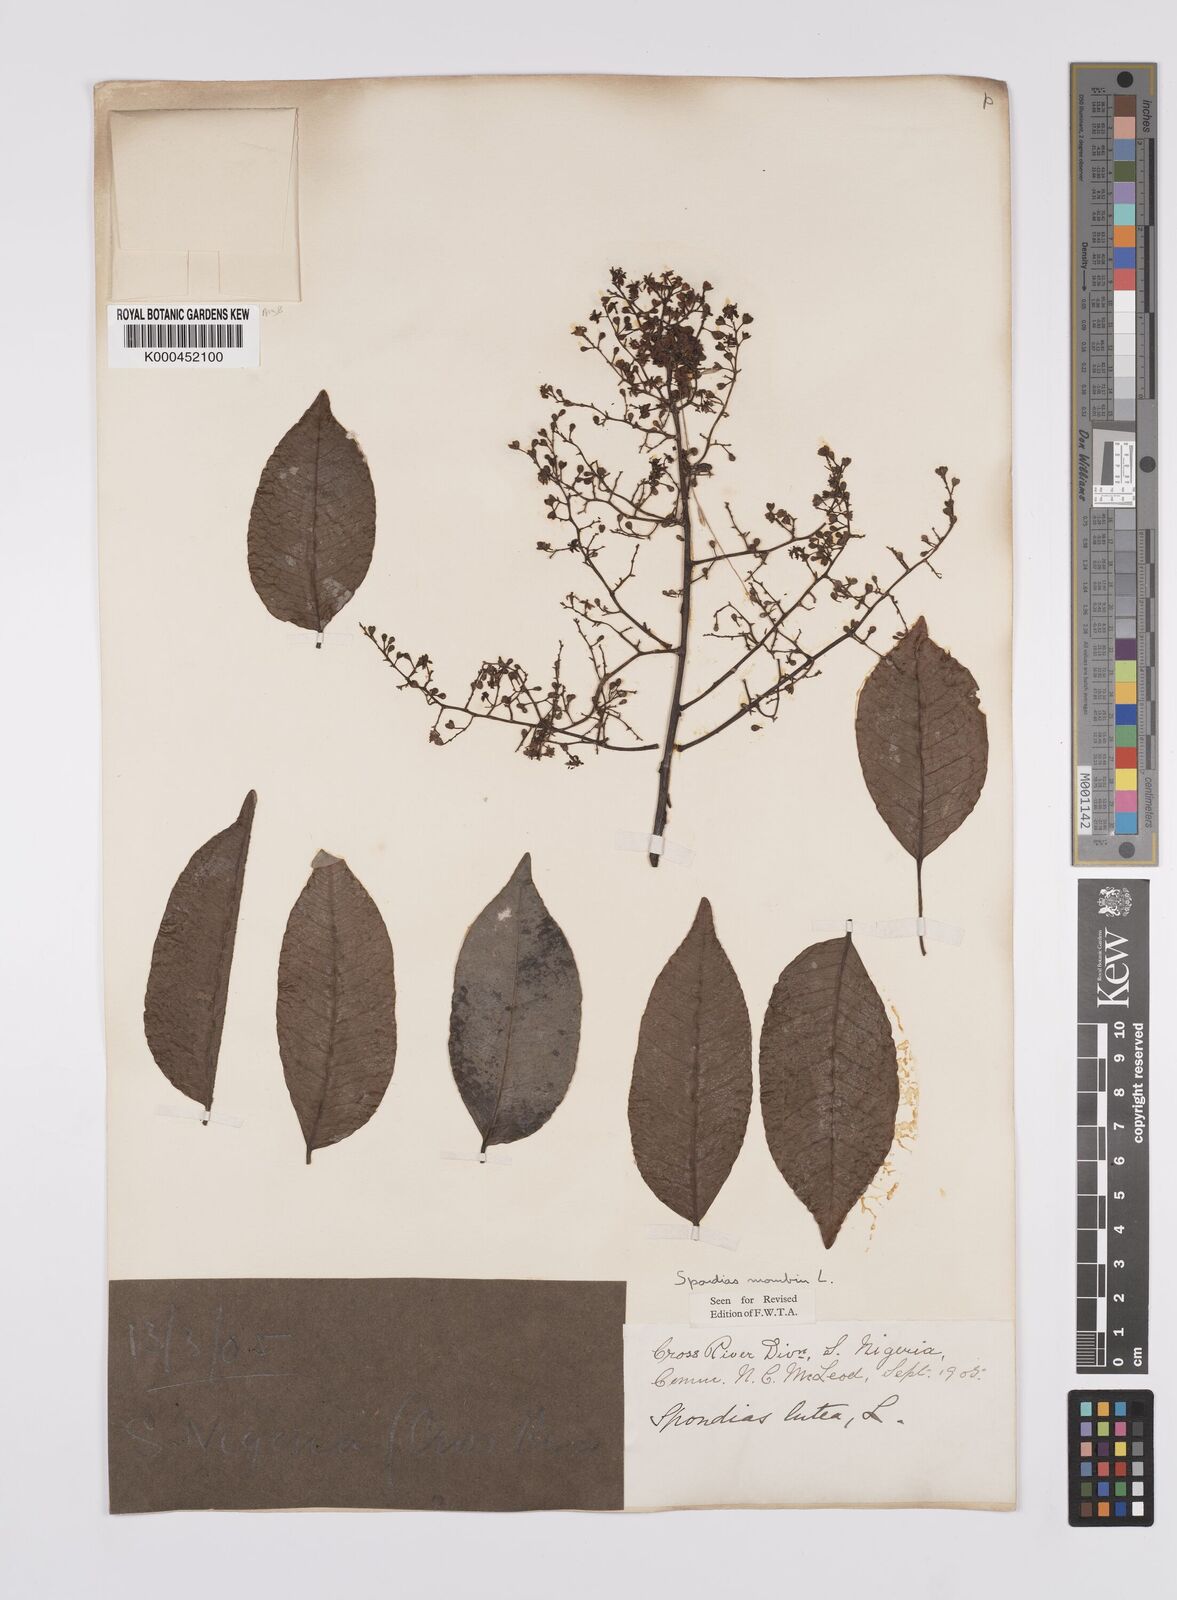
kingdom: Plantae
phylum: Tracheophyta
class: Magnoliopsida
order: Sapindales
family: Anacardiaceae
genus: Spondias
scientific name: Spondias mombin
